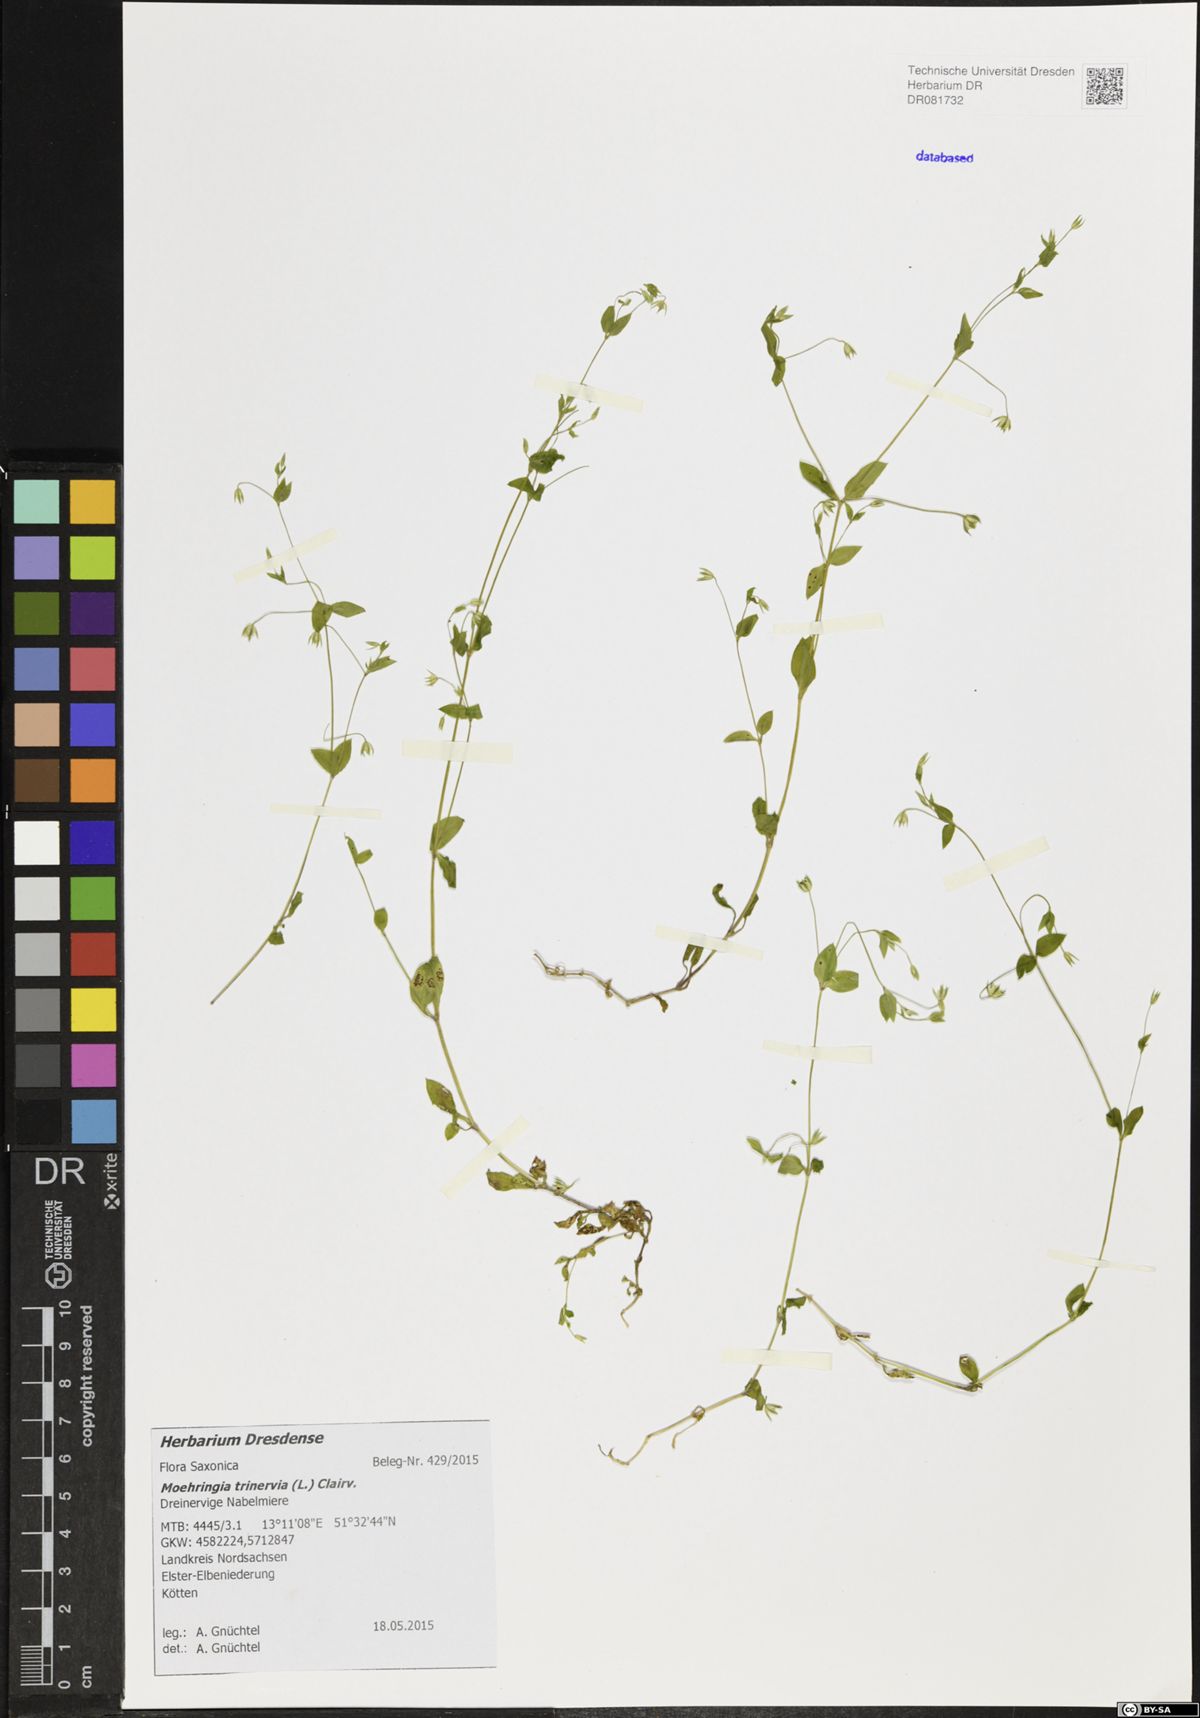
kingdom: Plantae
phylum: Tracheophyta
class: Magnoliopsida
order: Caryophyllales
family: Caryophyllaceae
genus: Moehringia
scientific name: Moehringia trinervia
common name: Three-nerved sandwort
